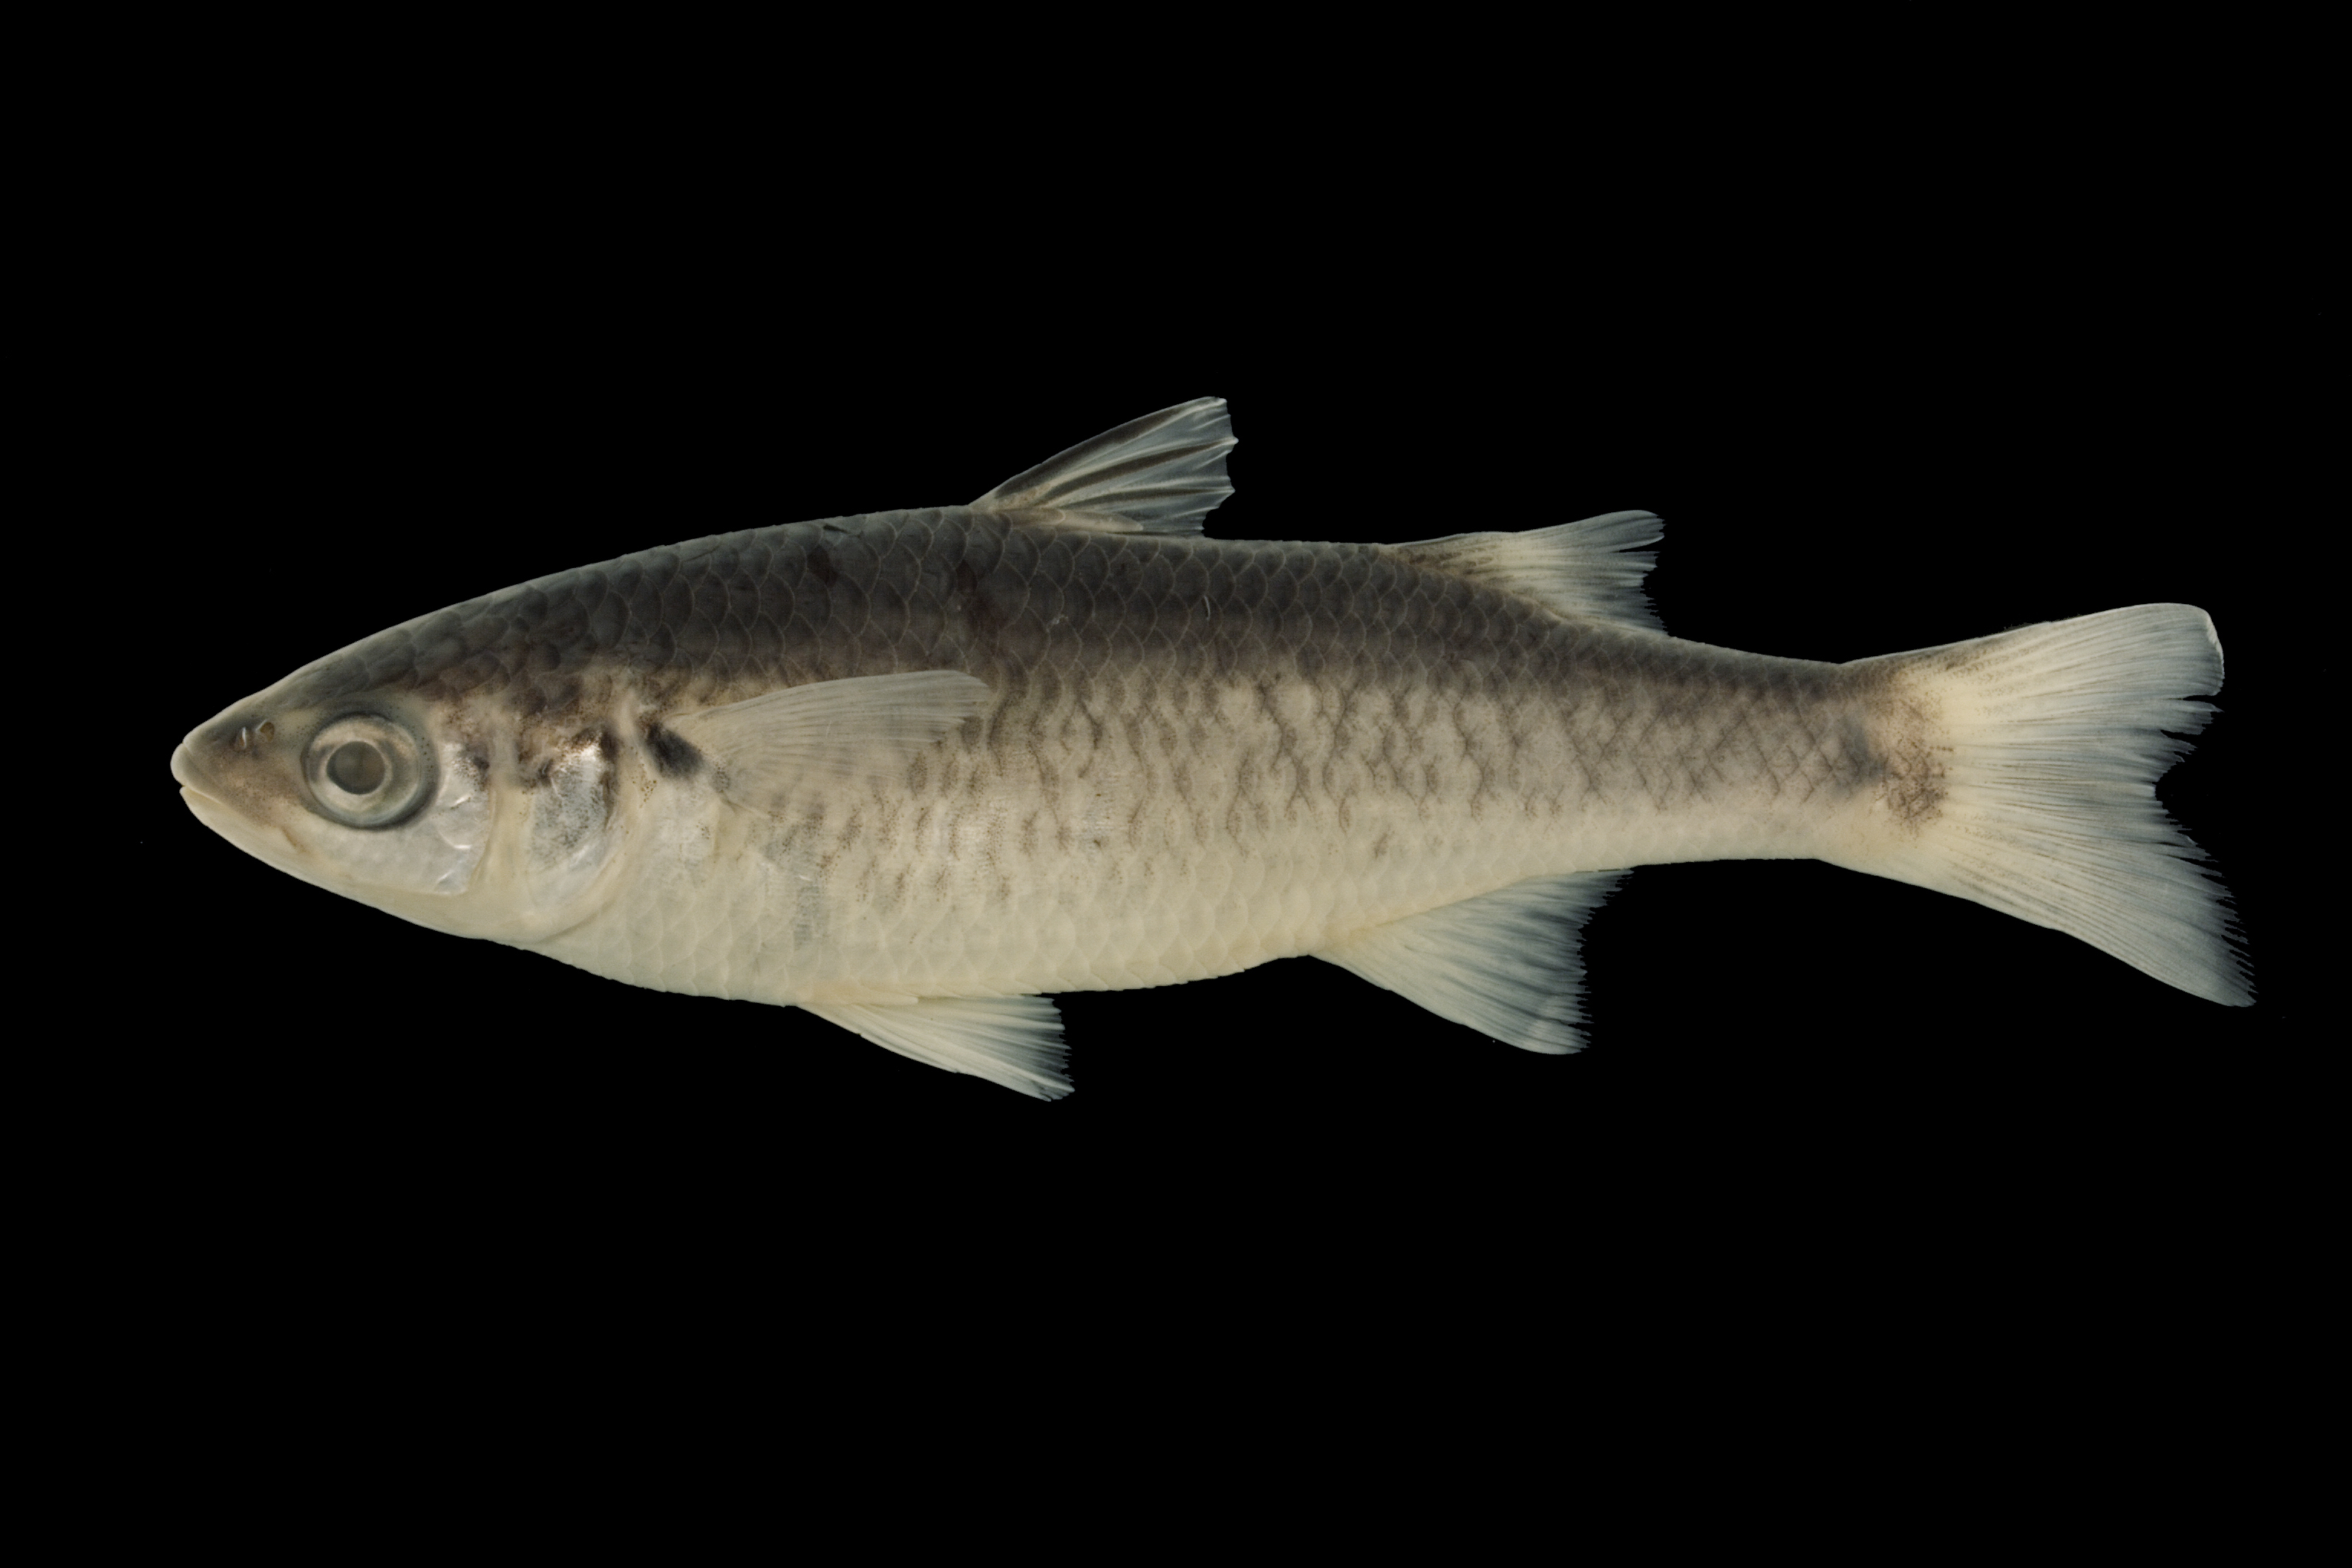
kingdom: Animalia
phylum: Chordata
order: Mugiliformes
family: Mugilidae
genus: Dajaus
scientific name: Dajaus monticola
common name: Mountain mullet
